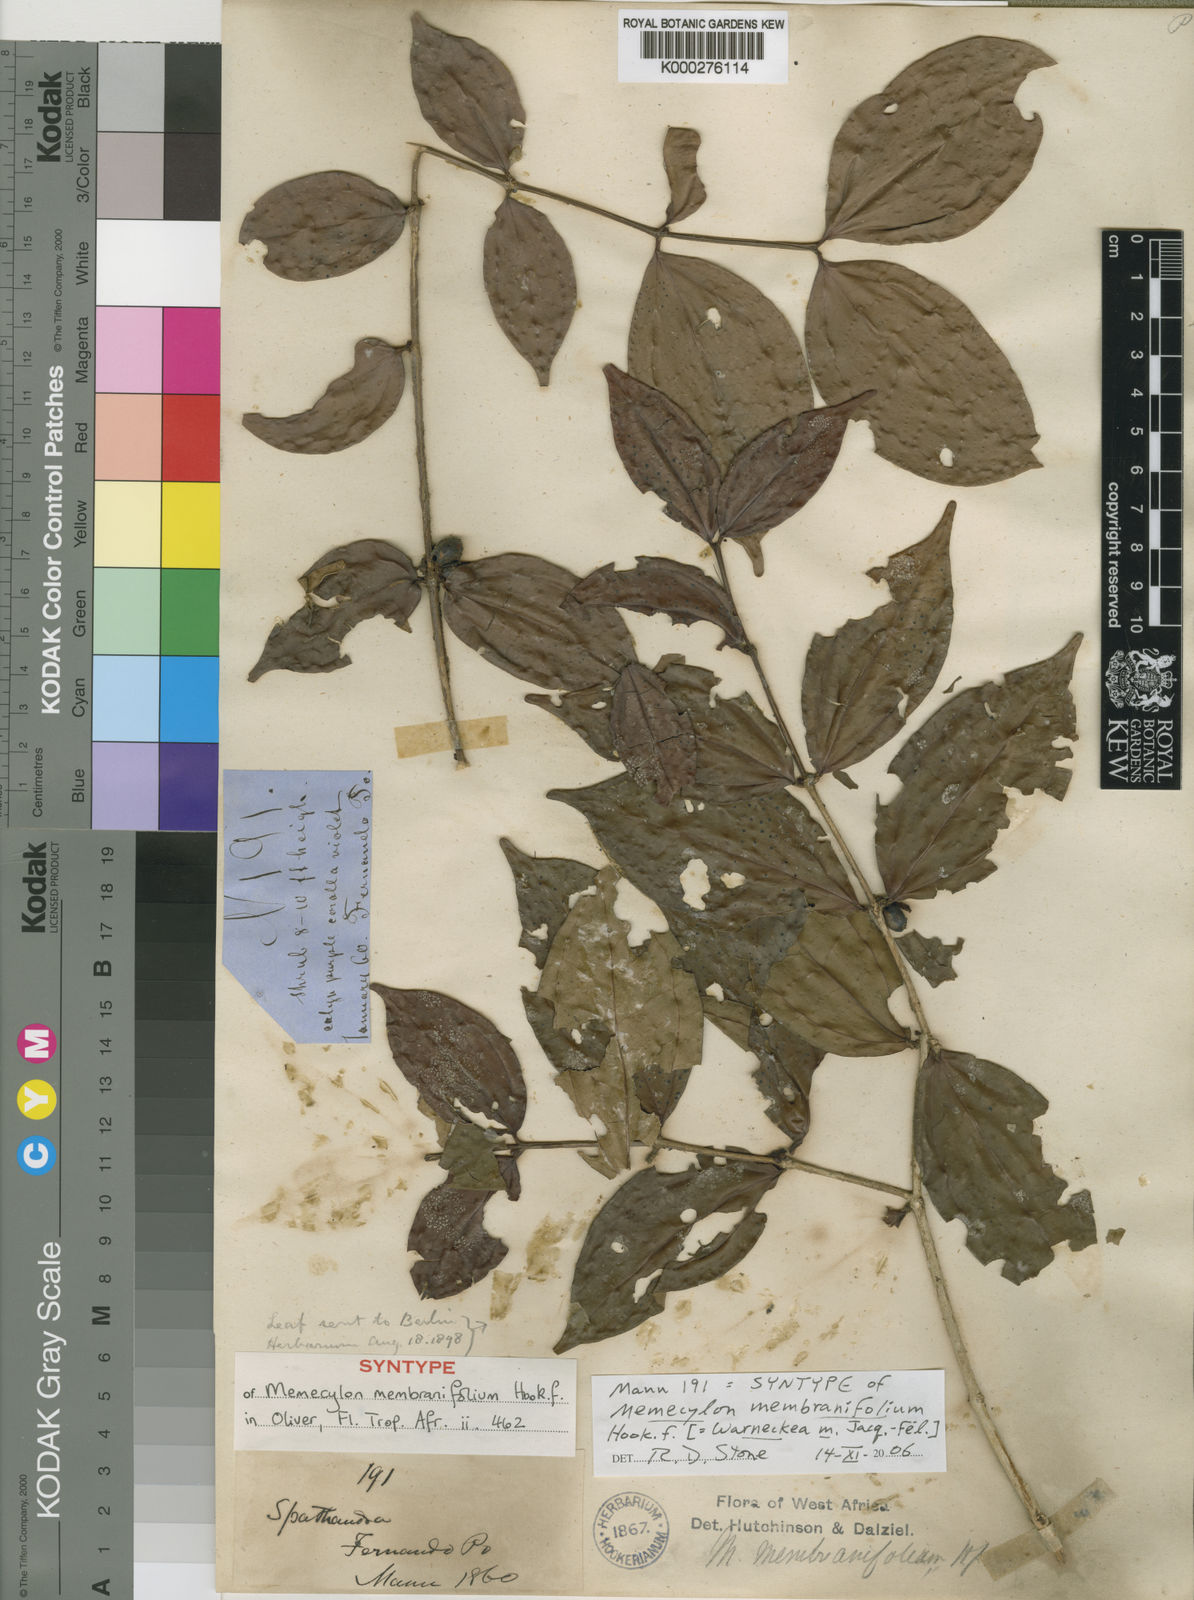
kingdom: Plantae
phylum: Tracheophyta
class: Magnoliopsida
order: Myrtales
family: Melastomataceae
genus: Warneckea
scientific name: Warneckea
